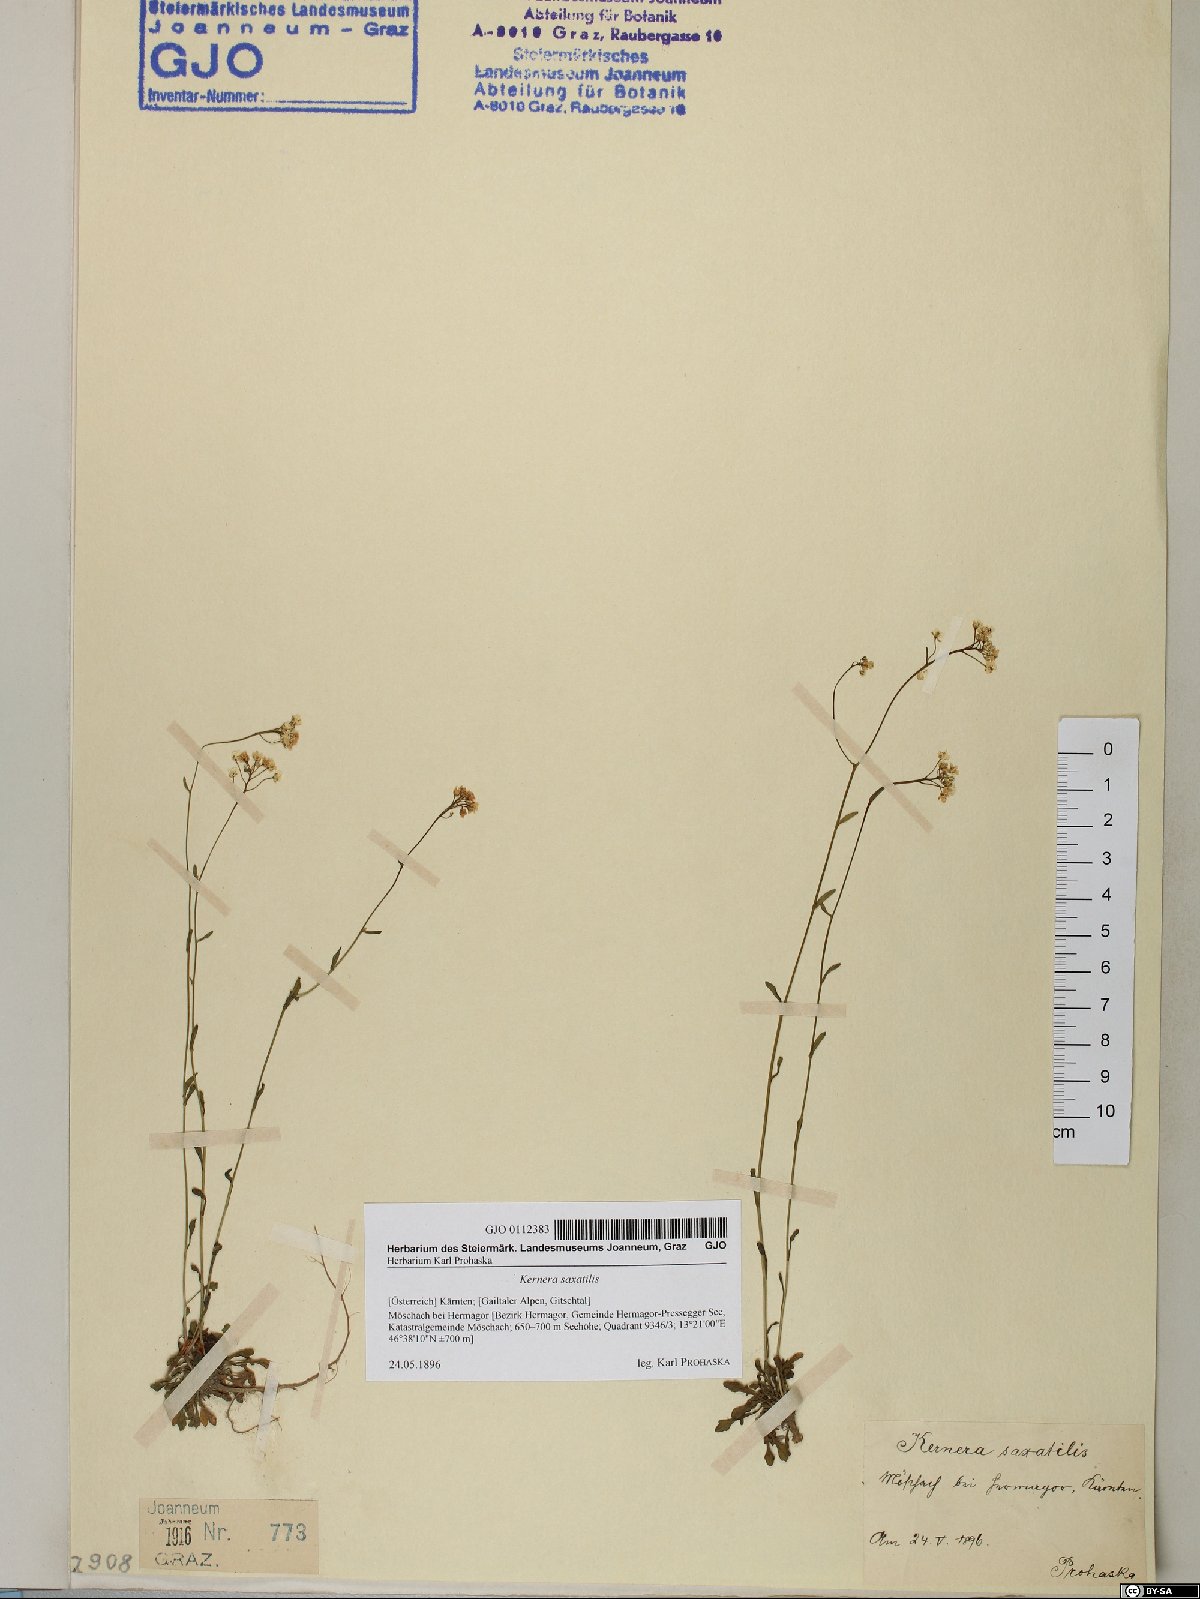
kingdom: Plantae
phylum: Tracheophyta
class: Magnoliopsida
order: Brassicales
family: Brassicaceae
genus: Kernera
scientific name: Kernera saxatilis
